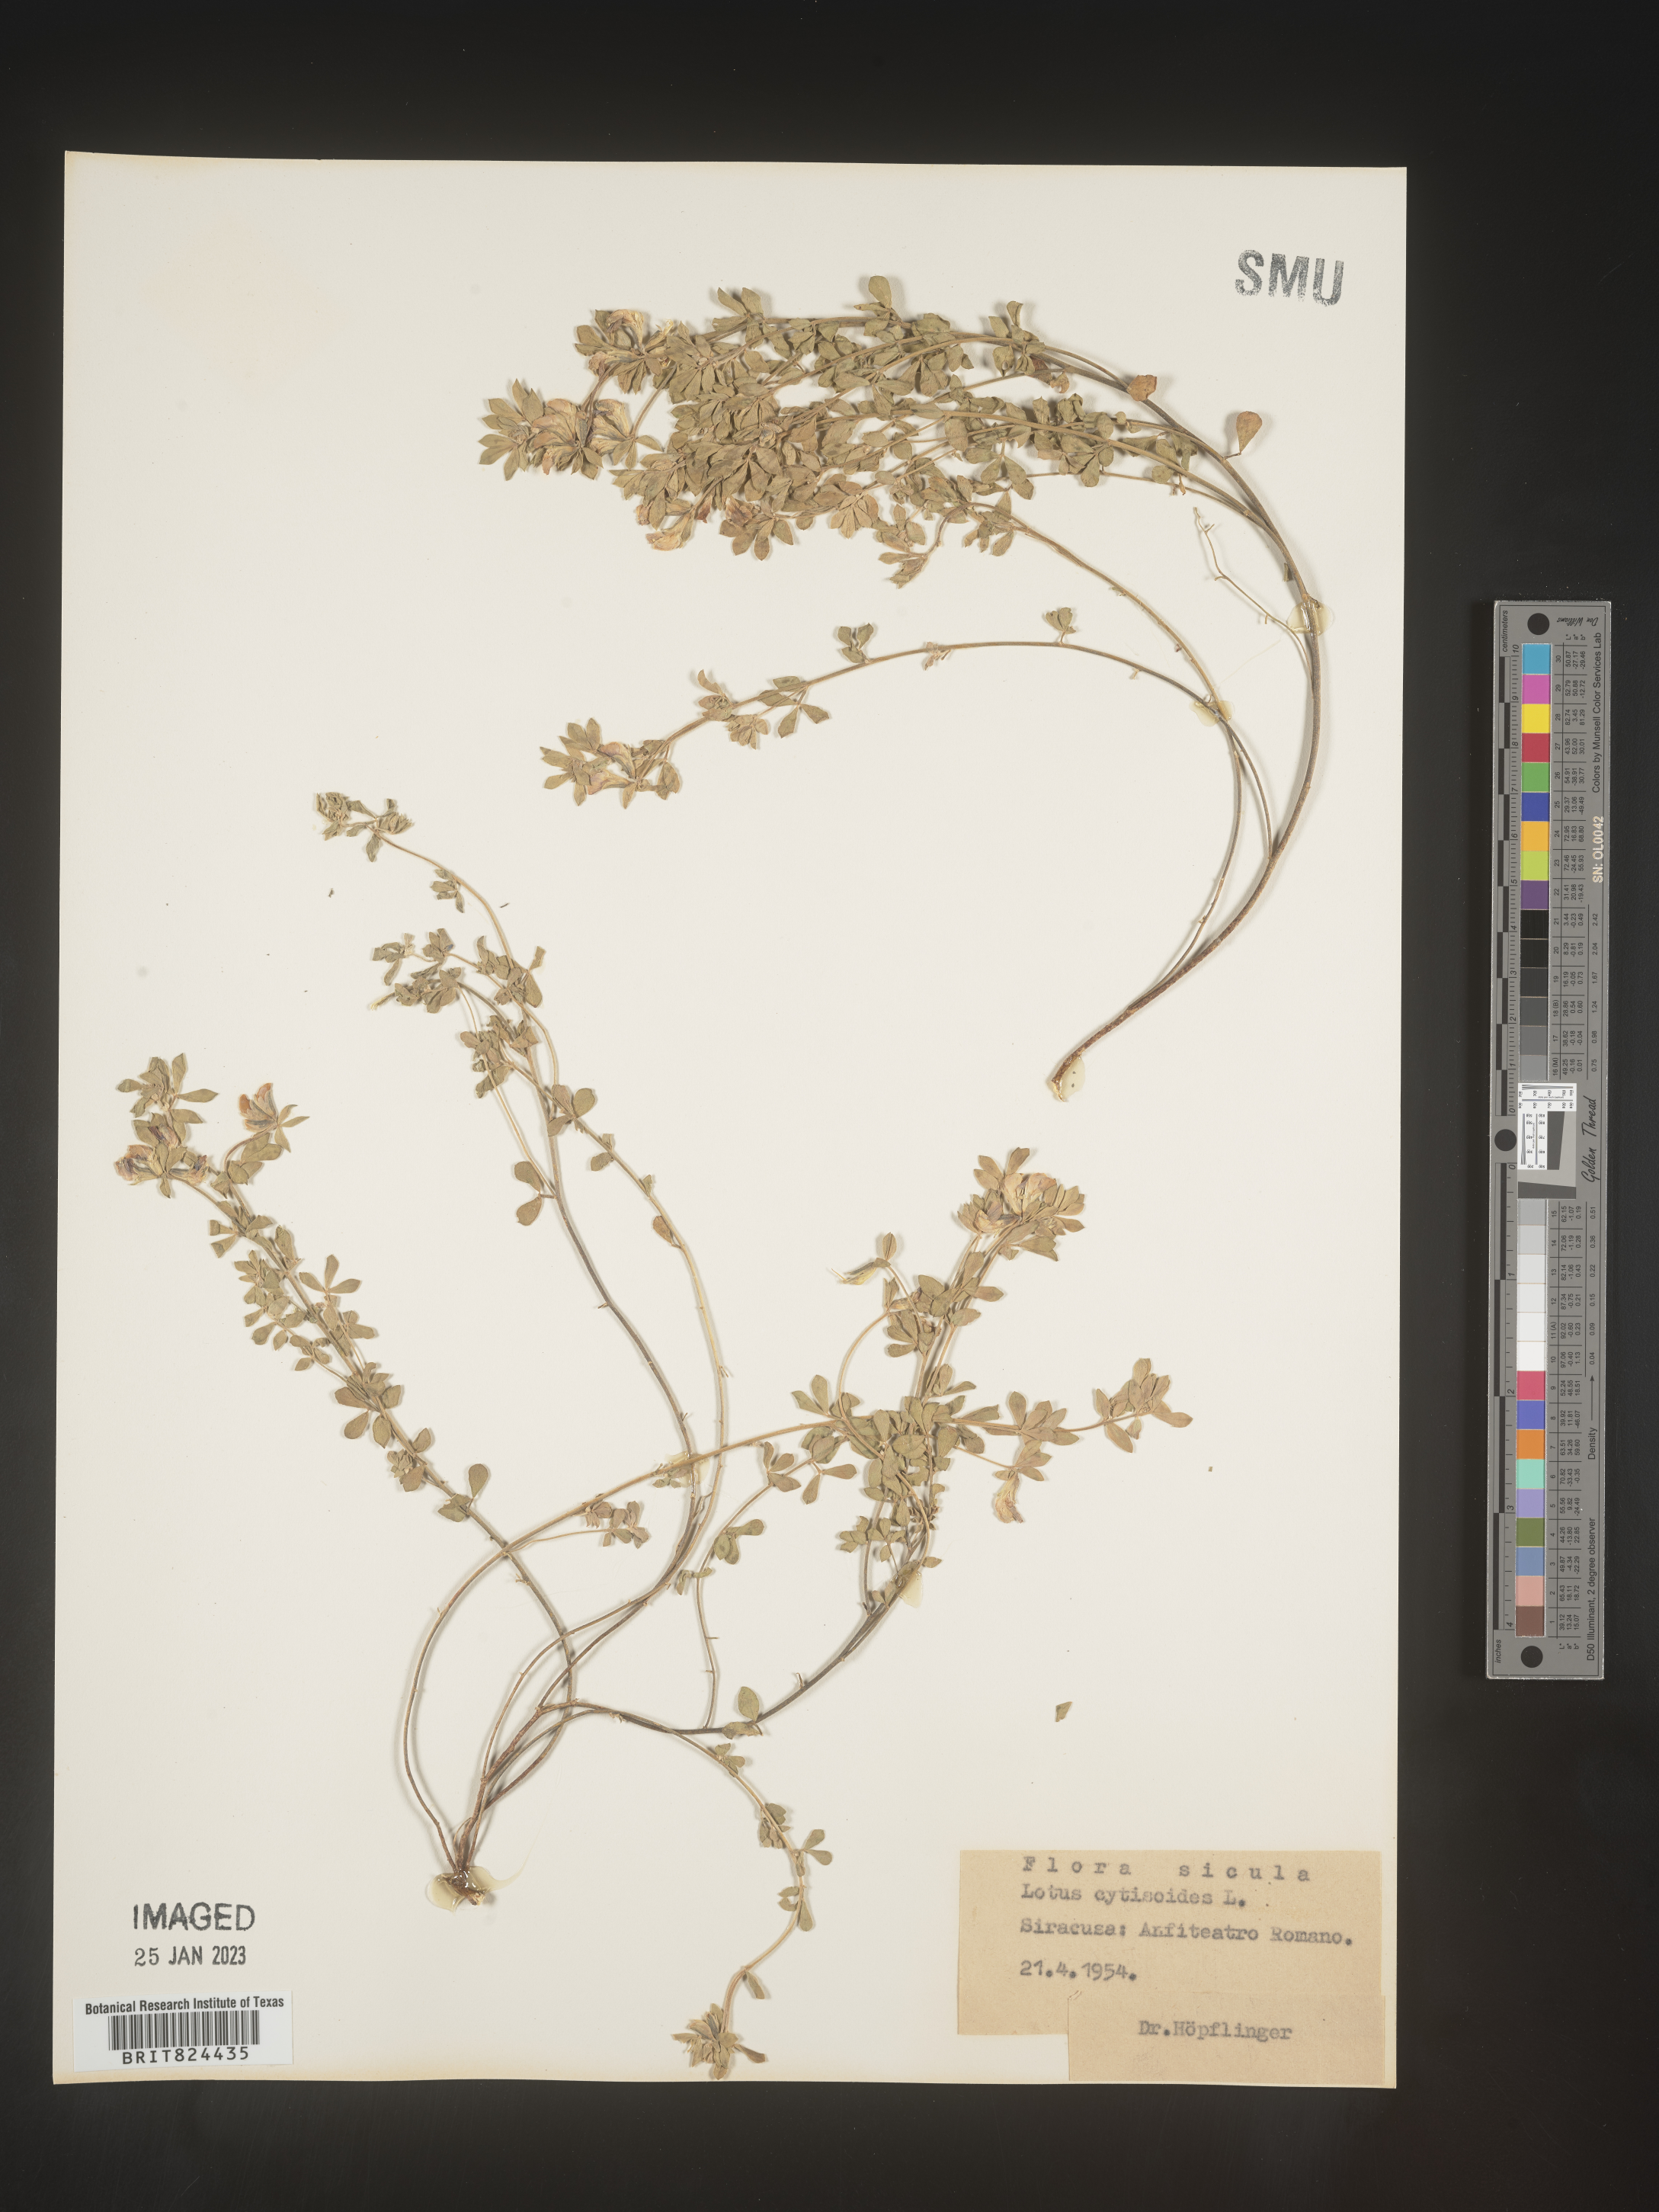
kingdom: Plantae
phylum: Tracheophyta
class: Magnoliopsida
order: Fabales
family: Fabaceae
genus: Lotus
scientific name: Lotus
